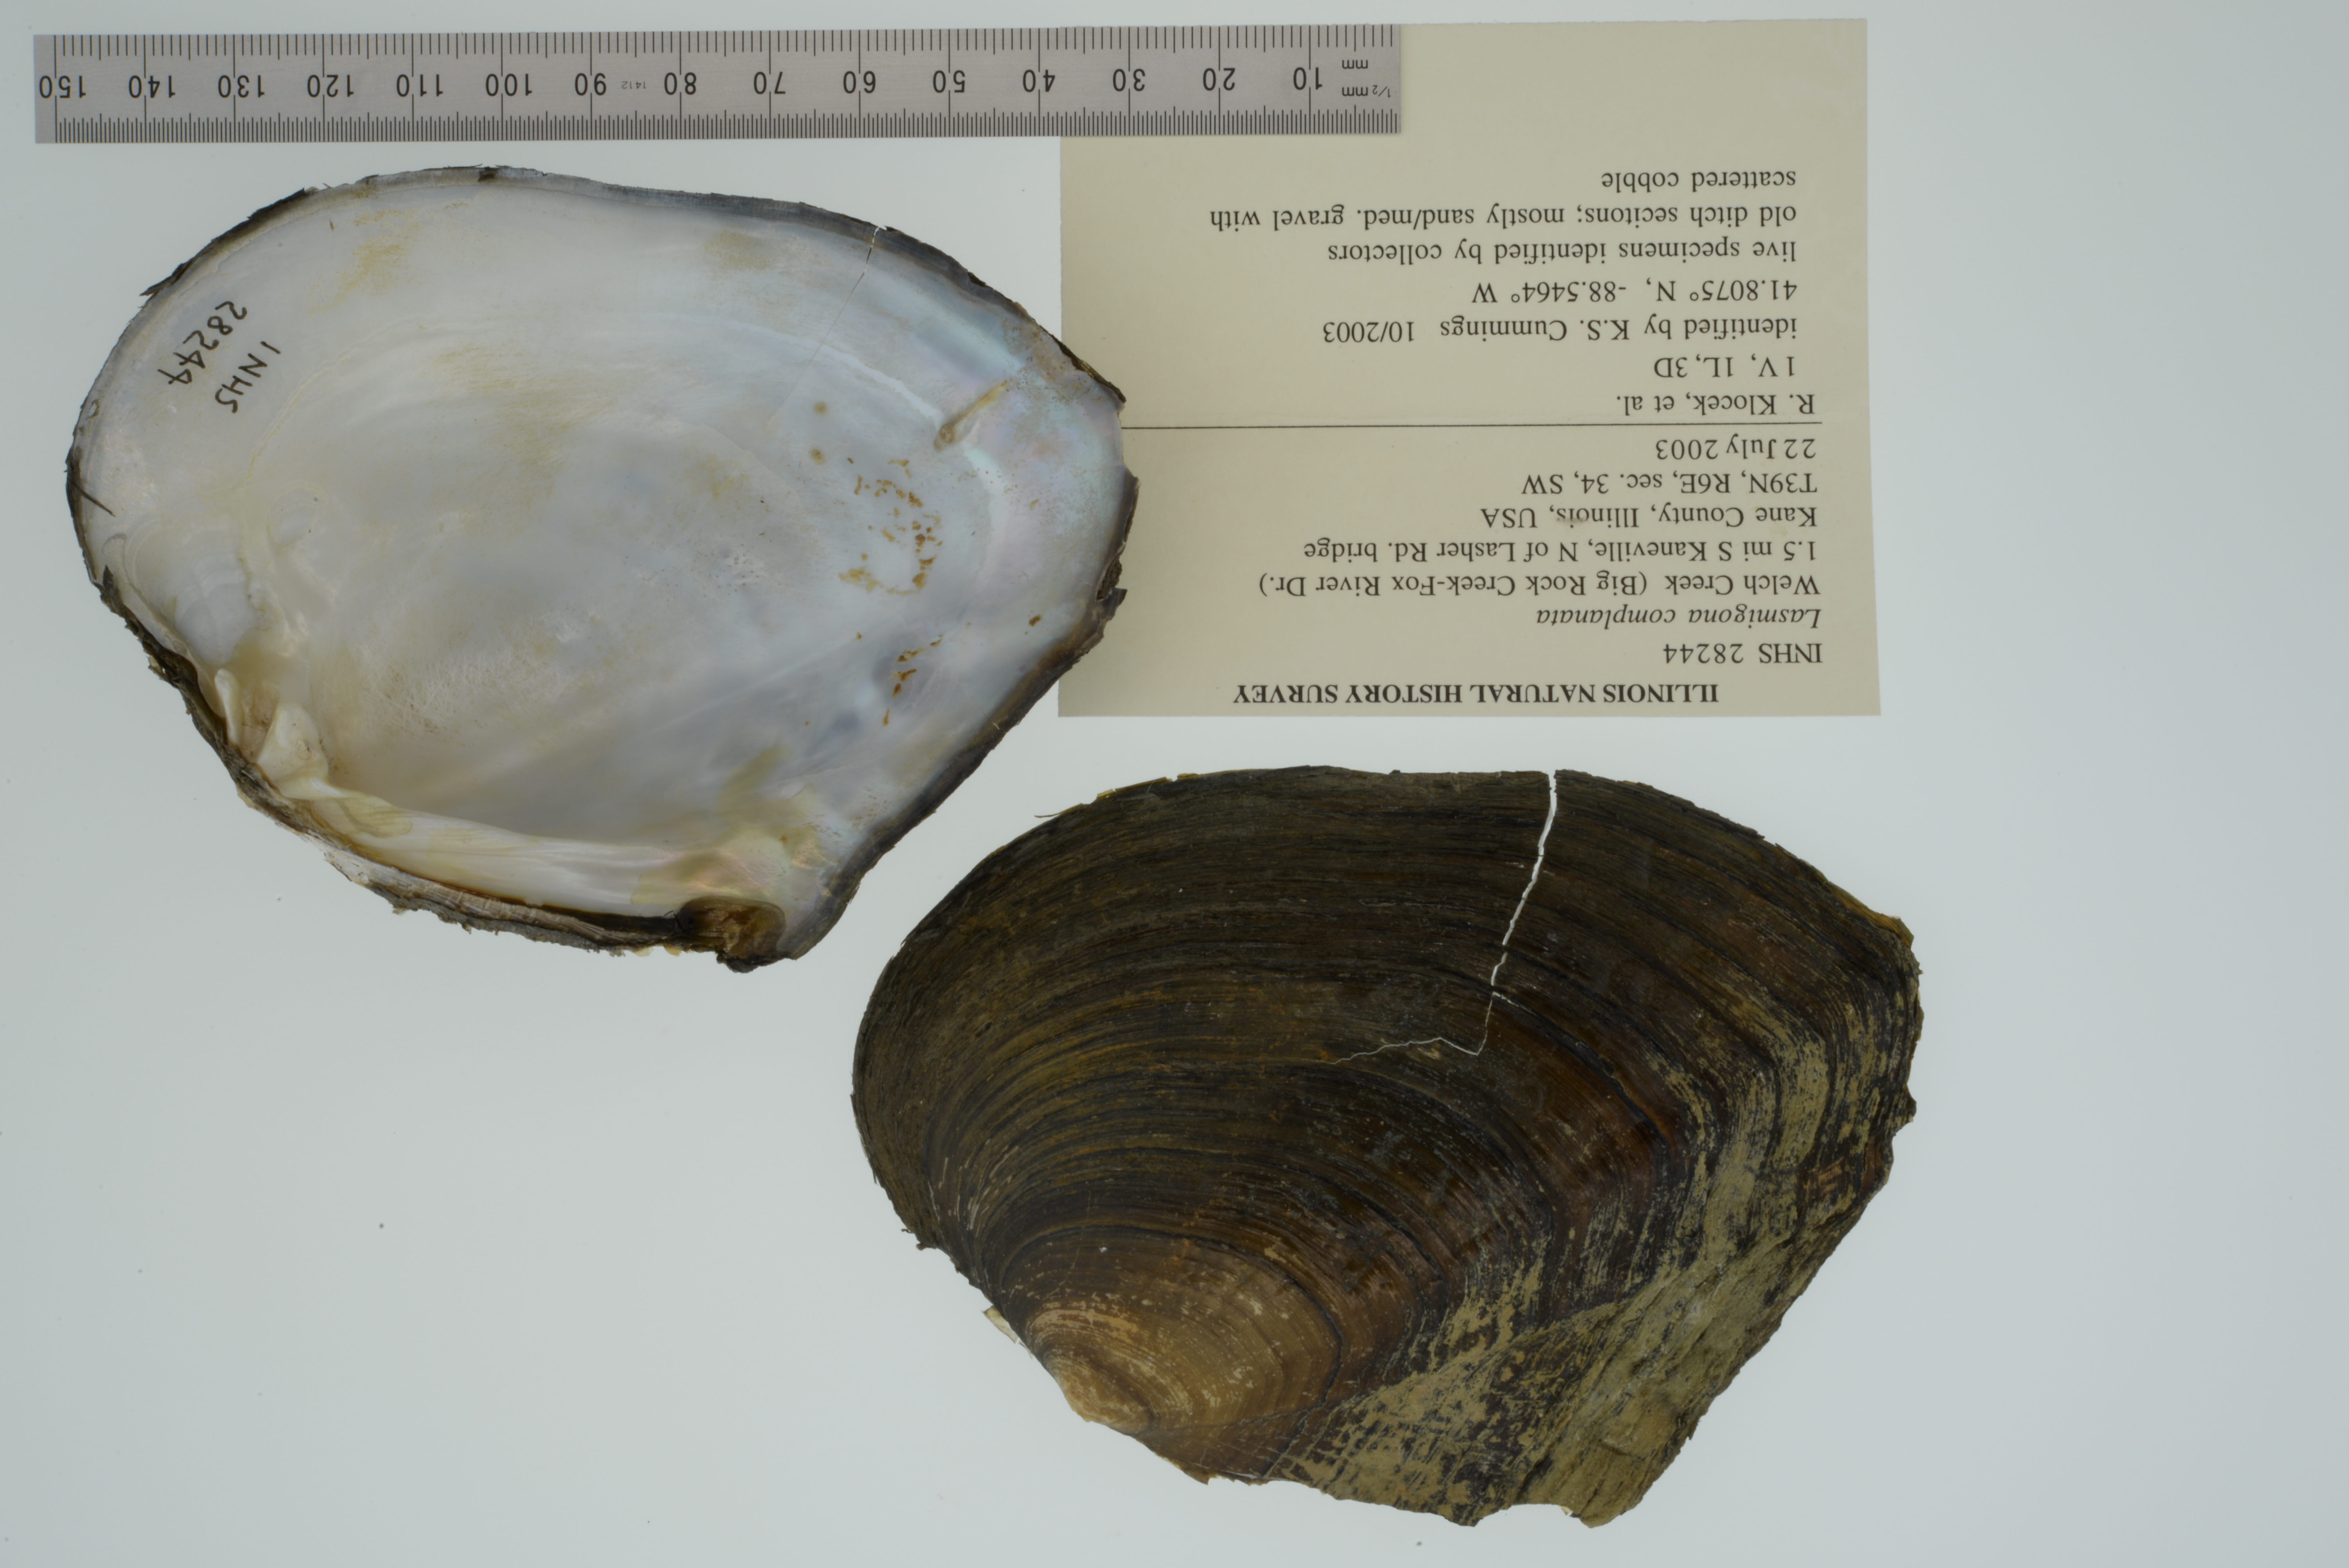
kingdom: Animalia
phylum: Mollusca
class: Bivalvia
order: Unionida
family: Unionidae
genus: Lasmigona
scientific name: Lasmigona complanata
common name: White heelsplitter
